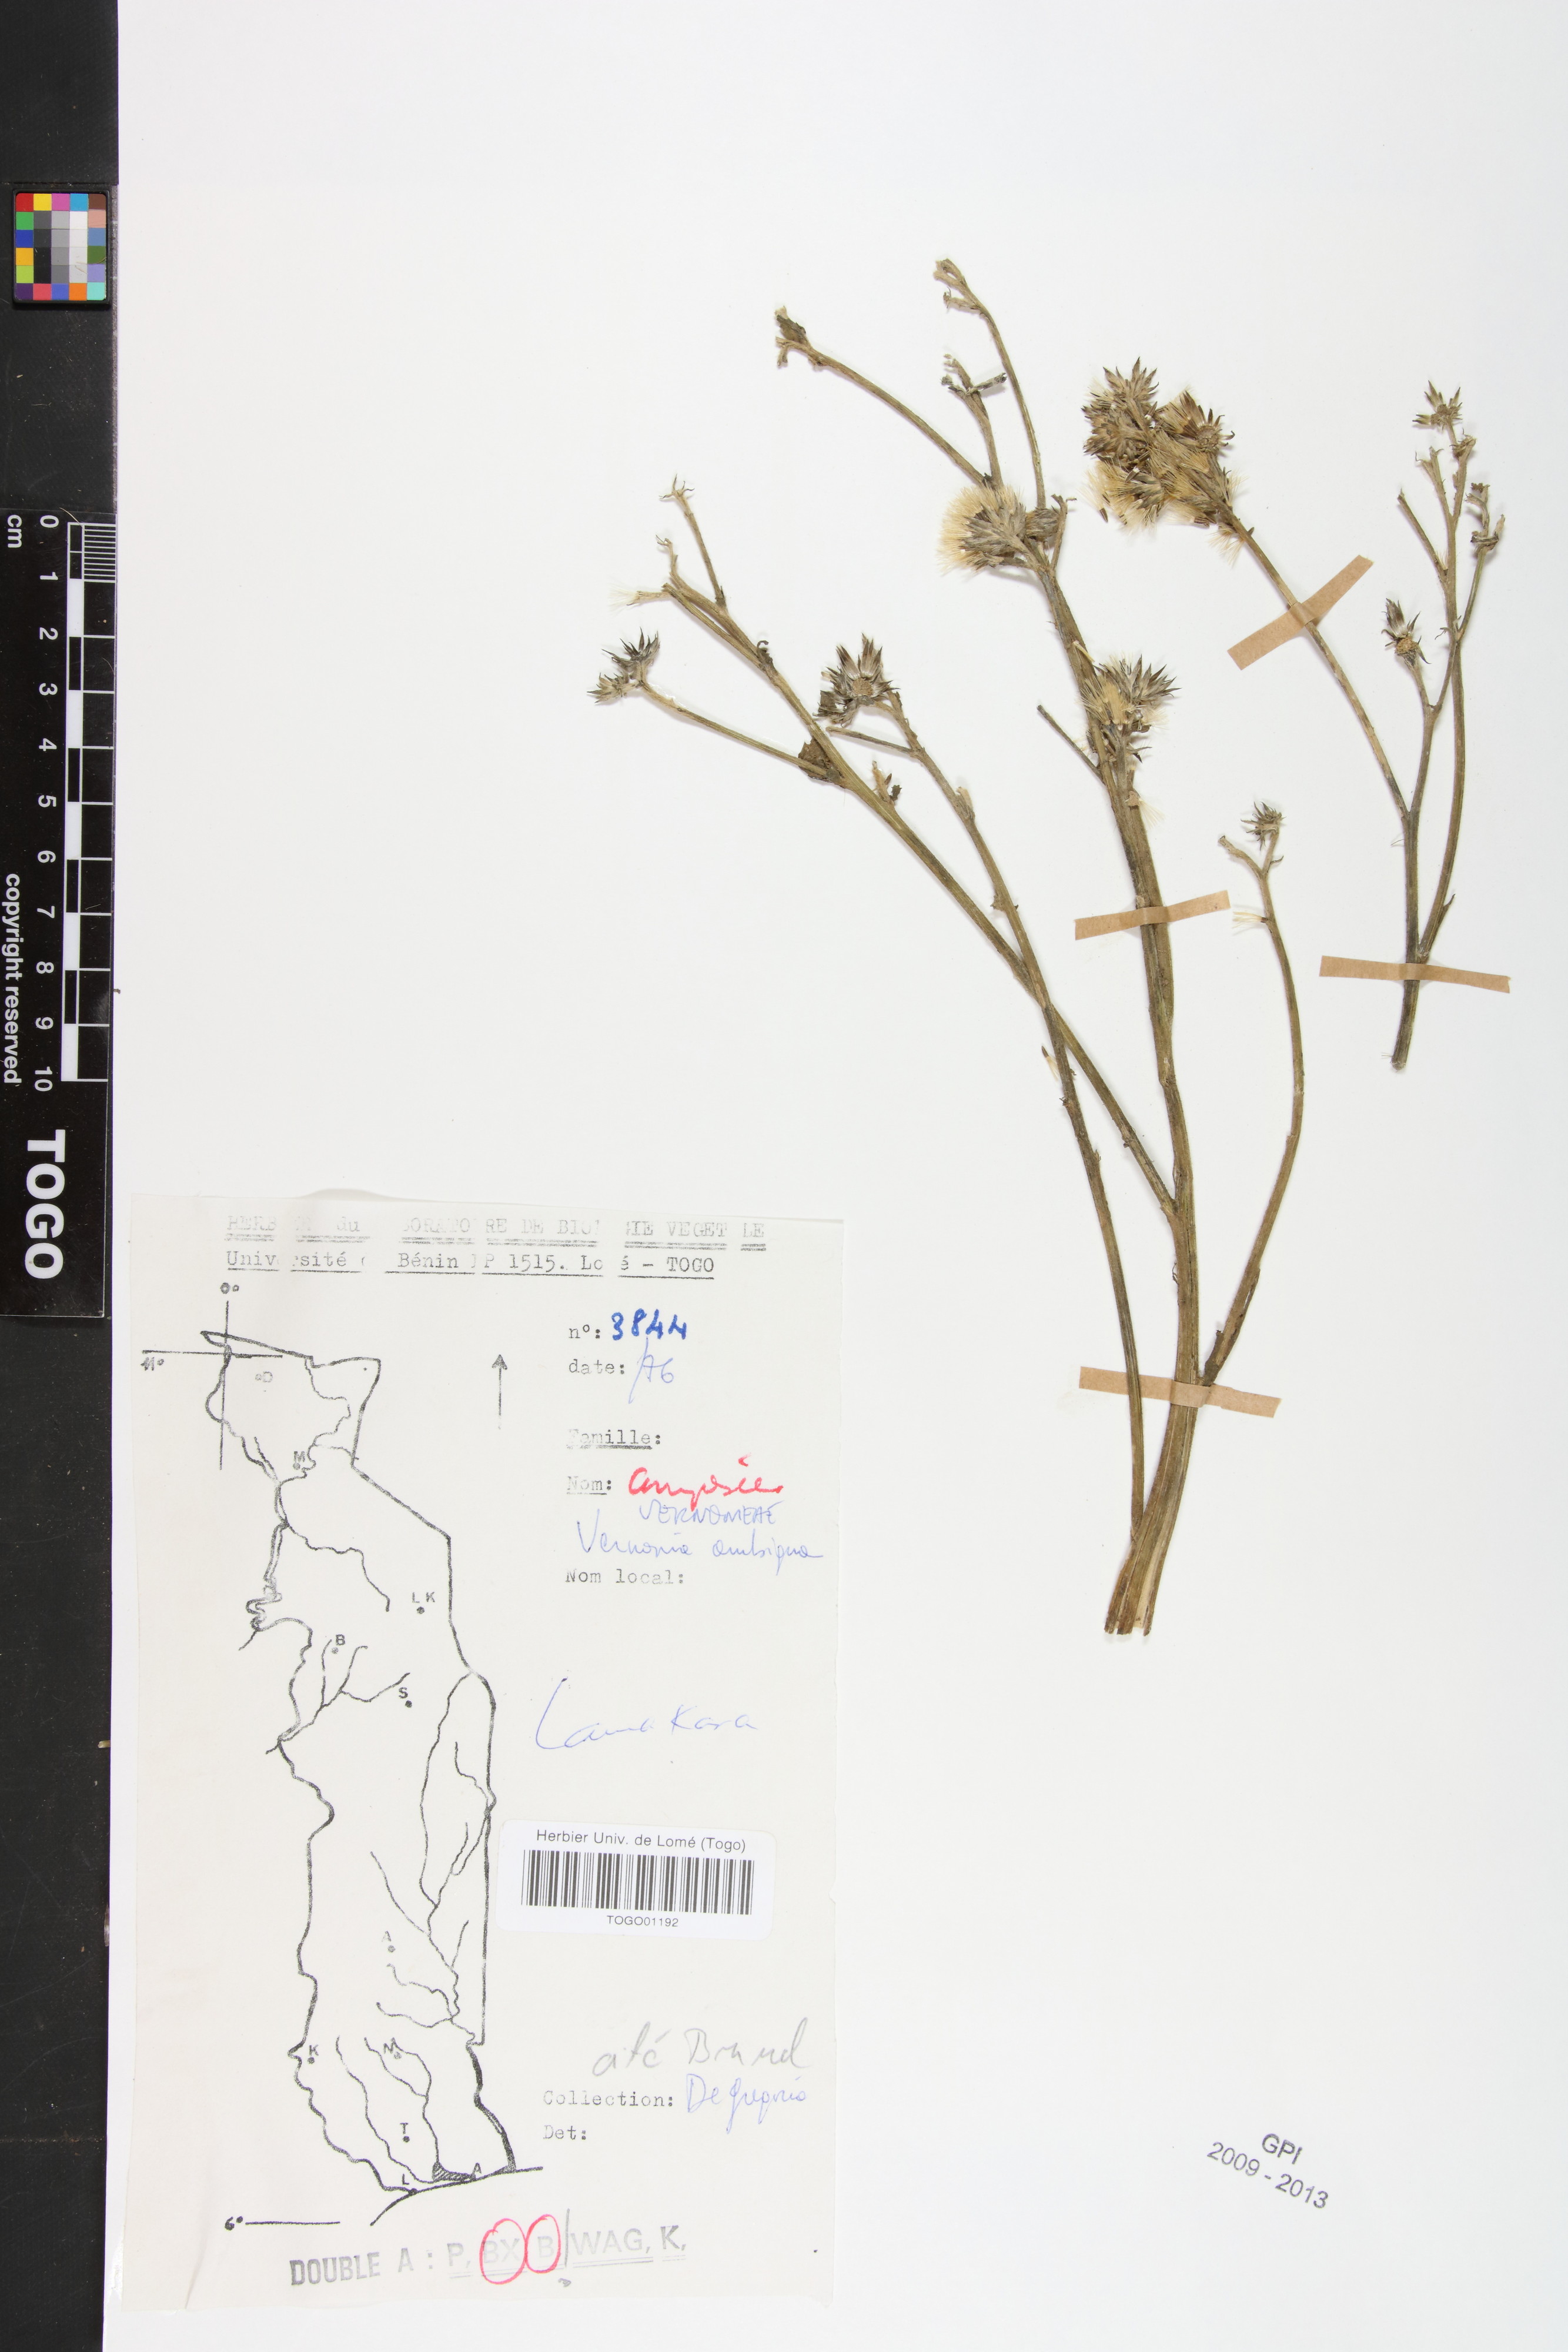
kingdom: Plantae
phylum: Tracheophyta
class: Magnoliopsida
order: Asterales
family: Asteraceae
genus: Vernoniastrum
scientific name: Vernoniastrum ambiguum
